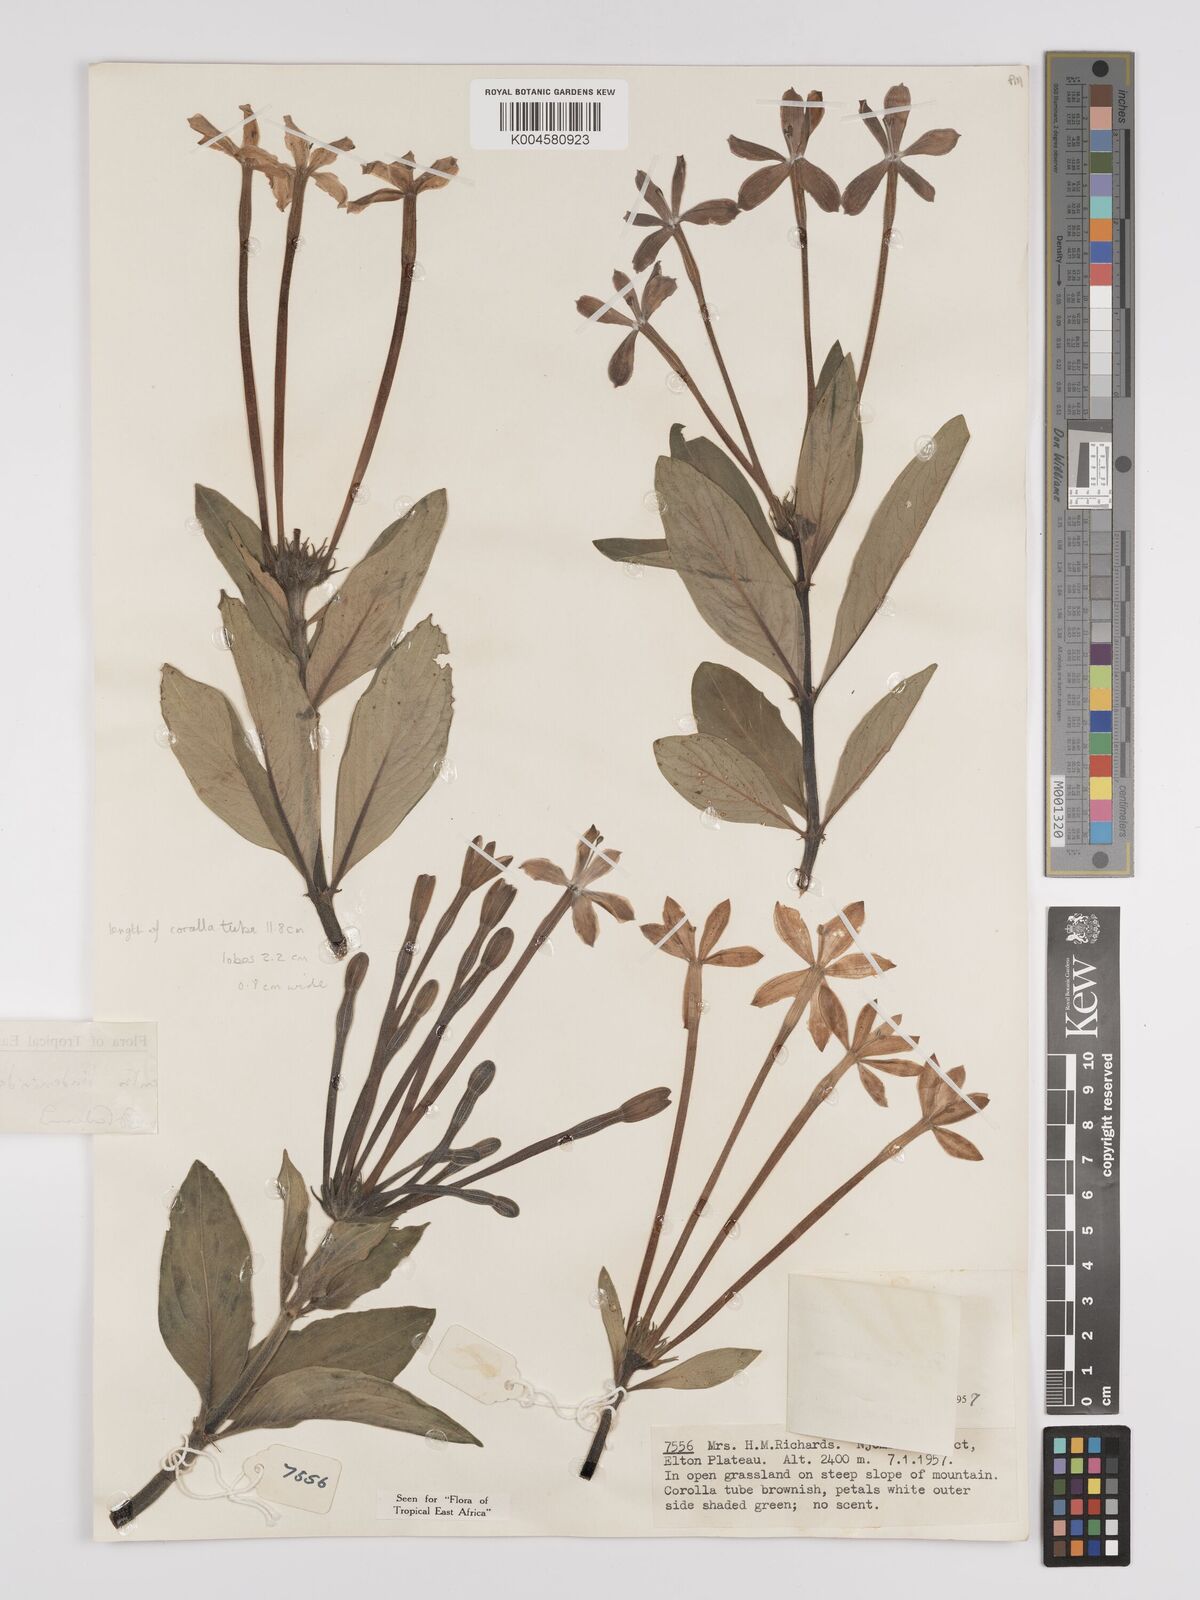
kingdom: Plantae
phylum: Tracheophyta
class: Magnoliopsida
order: Gentianales
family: Rubiaceae
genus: Dolichopentas
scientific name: Dolichopentas lindenioides
